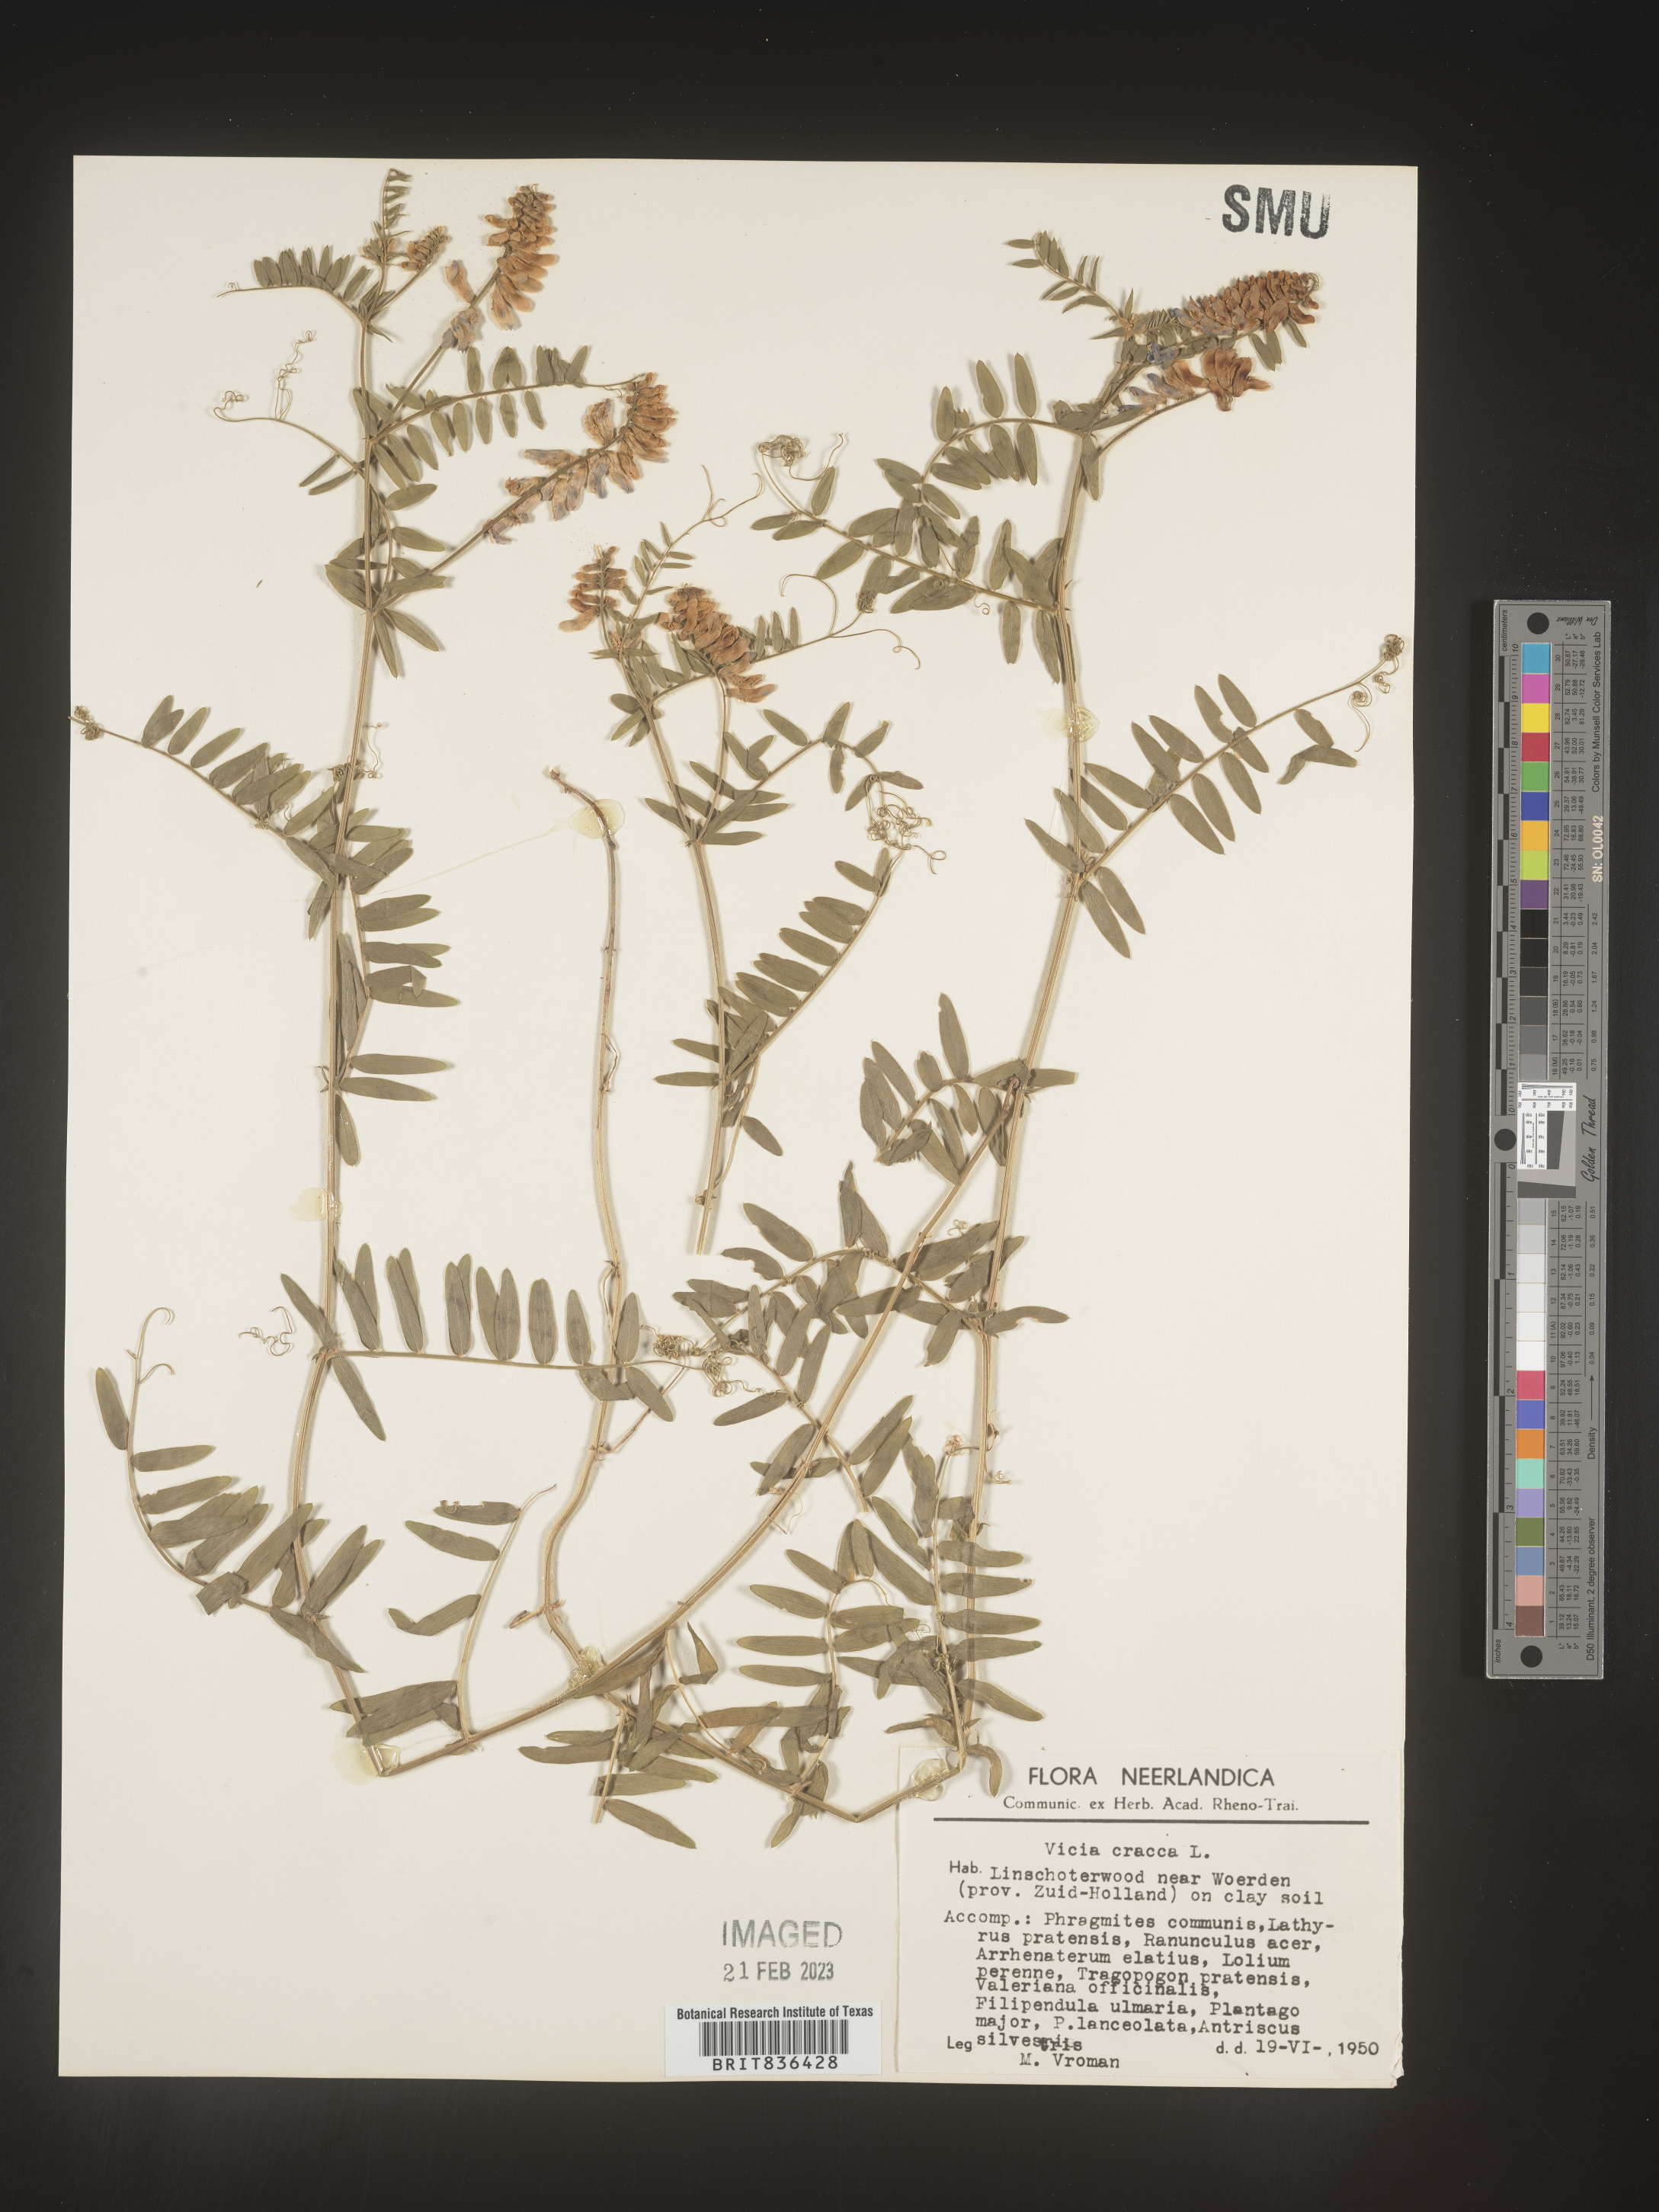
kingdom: Plantae
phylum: Tracheophyta
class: Magnoliopsida
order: Fabales
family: Fabaceae
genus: Vicia
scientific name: Vicia
